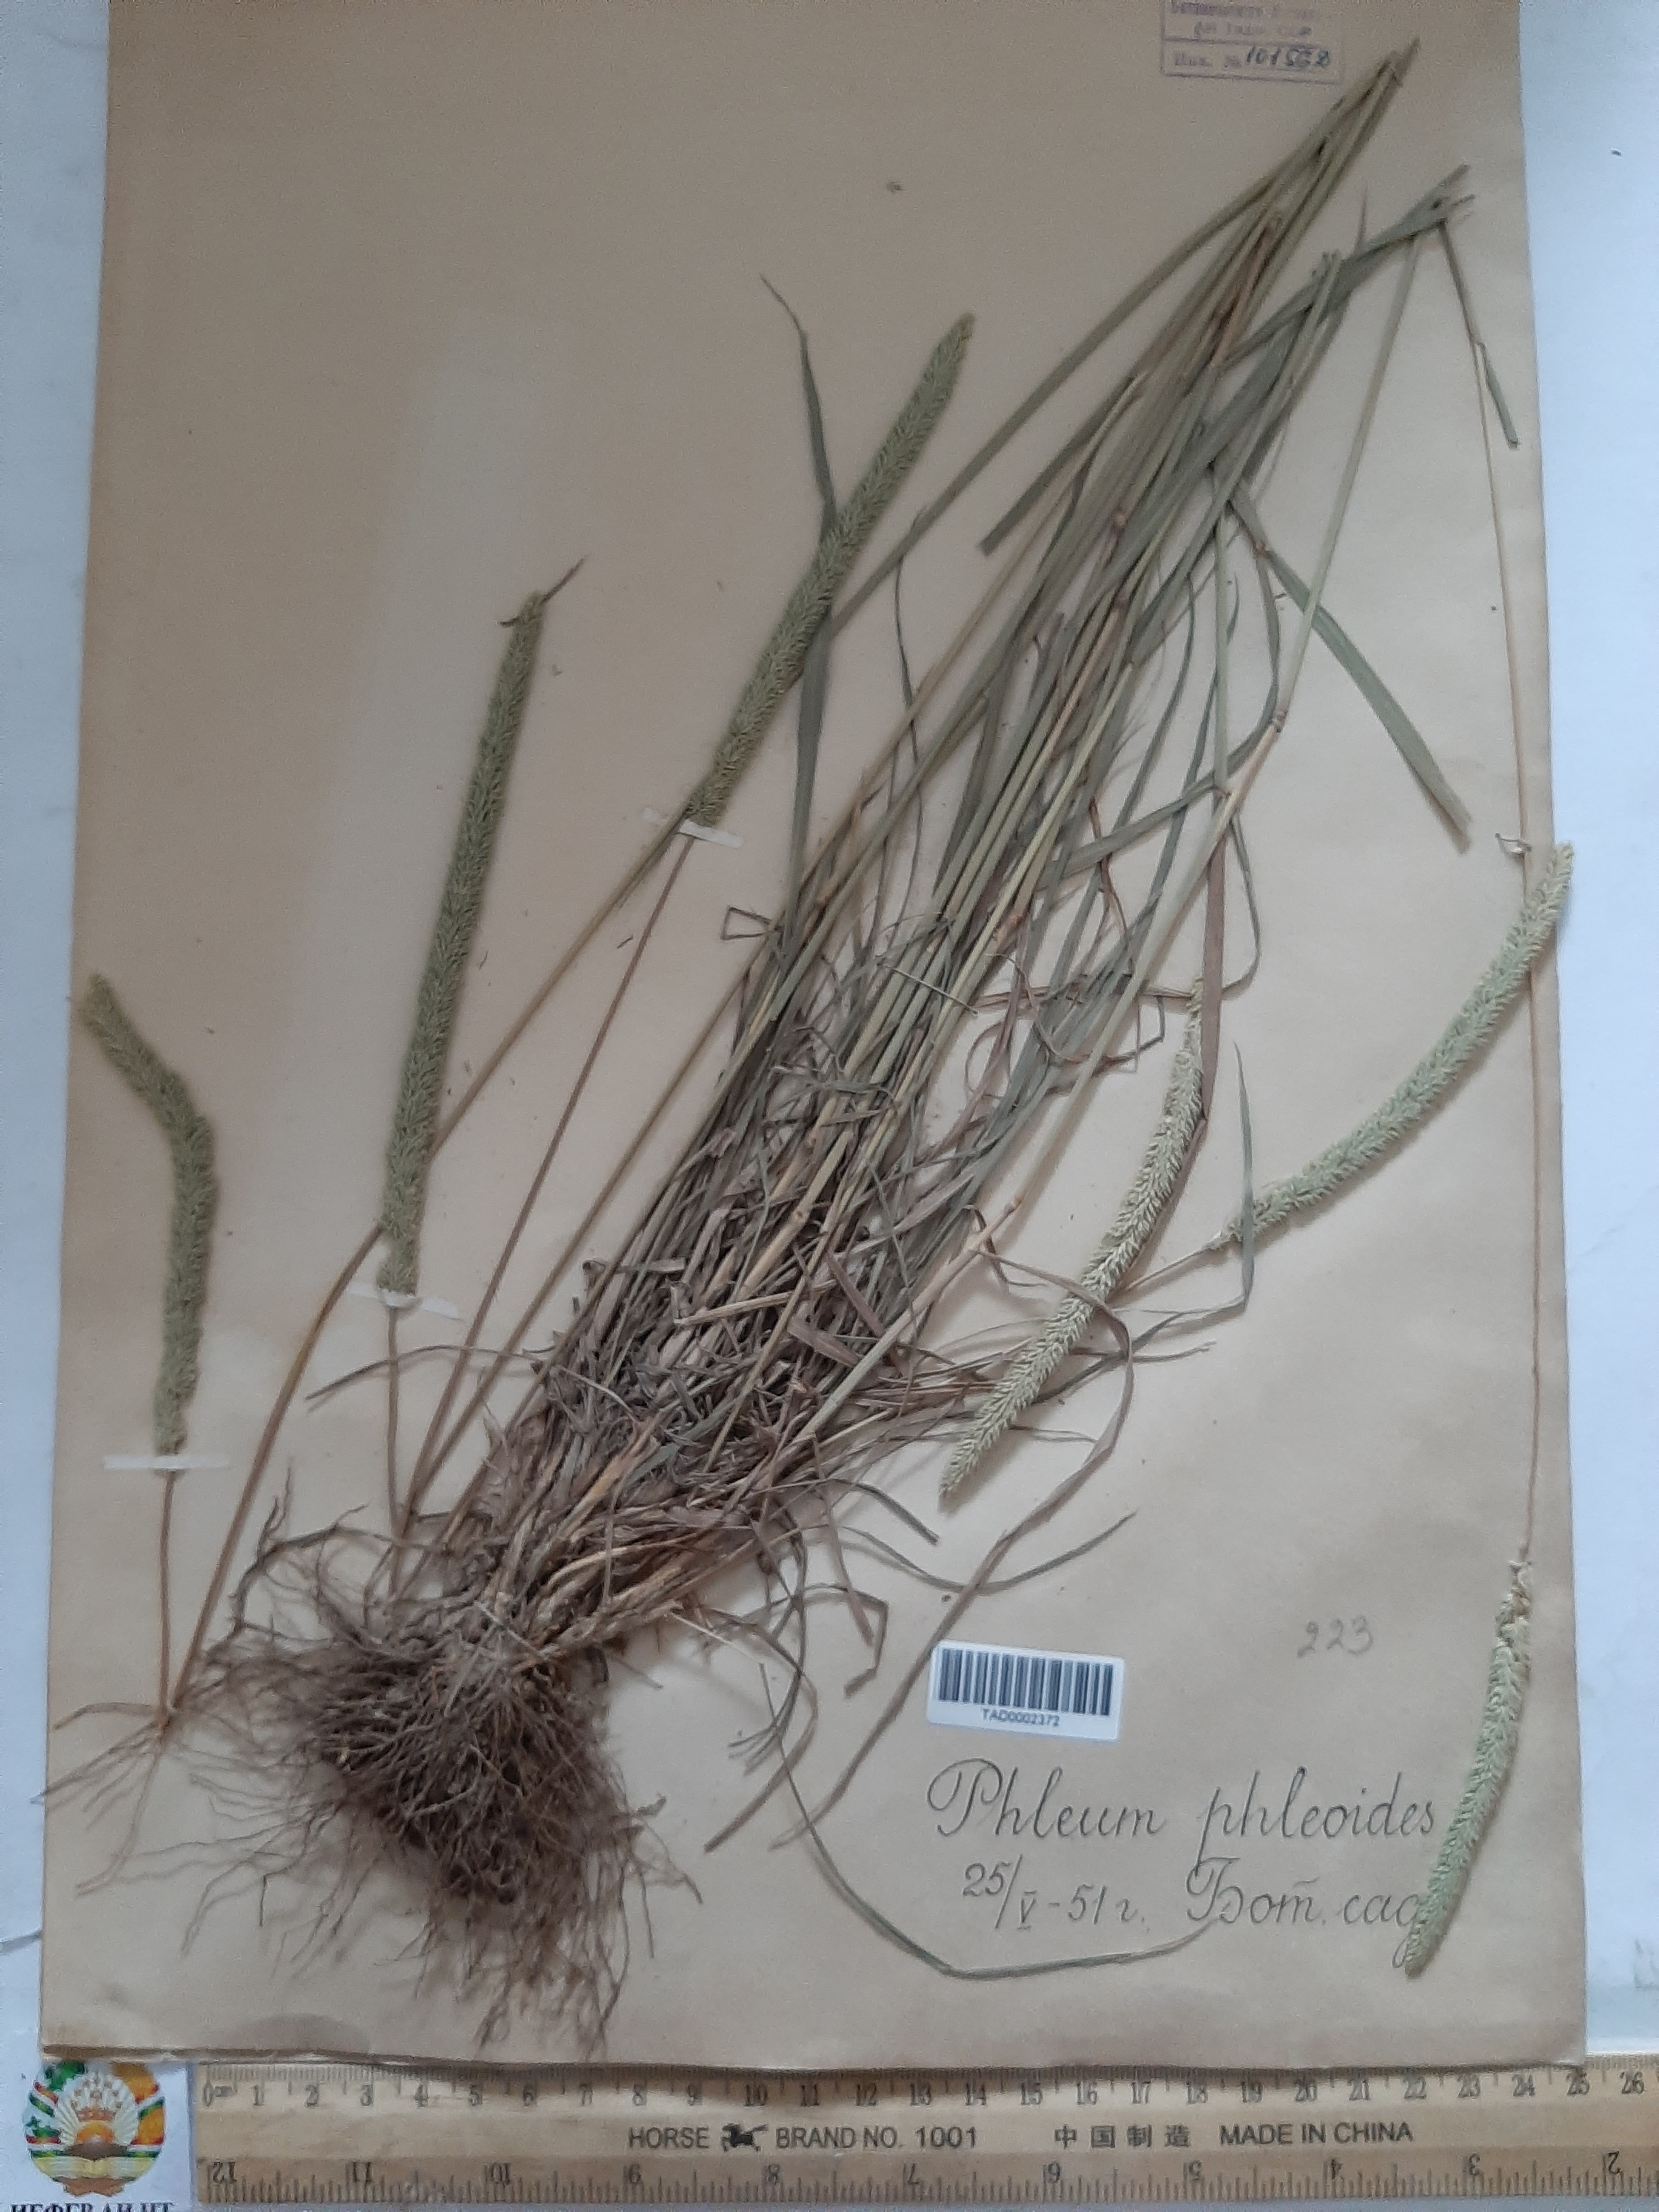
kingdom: Plantae
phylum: Tracheophyta
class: Liliopsida
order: Poales
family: Poaceae
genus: Phleum
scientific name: Phleum phleoides
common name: Purple-stem cat's-tail
